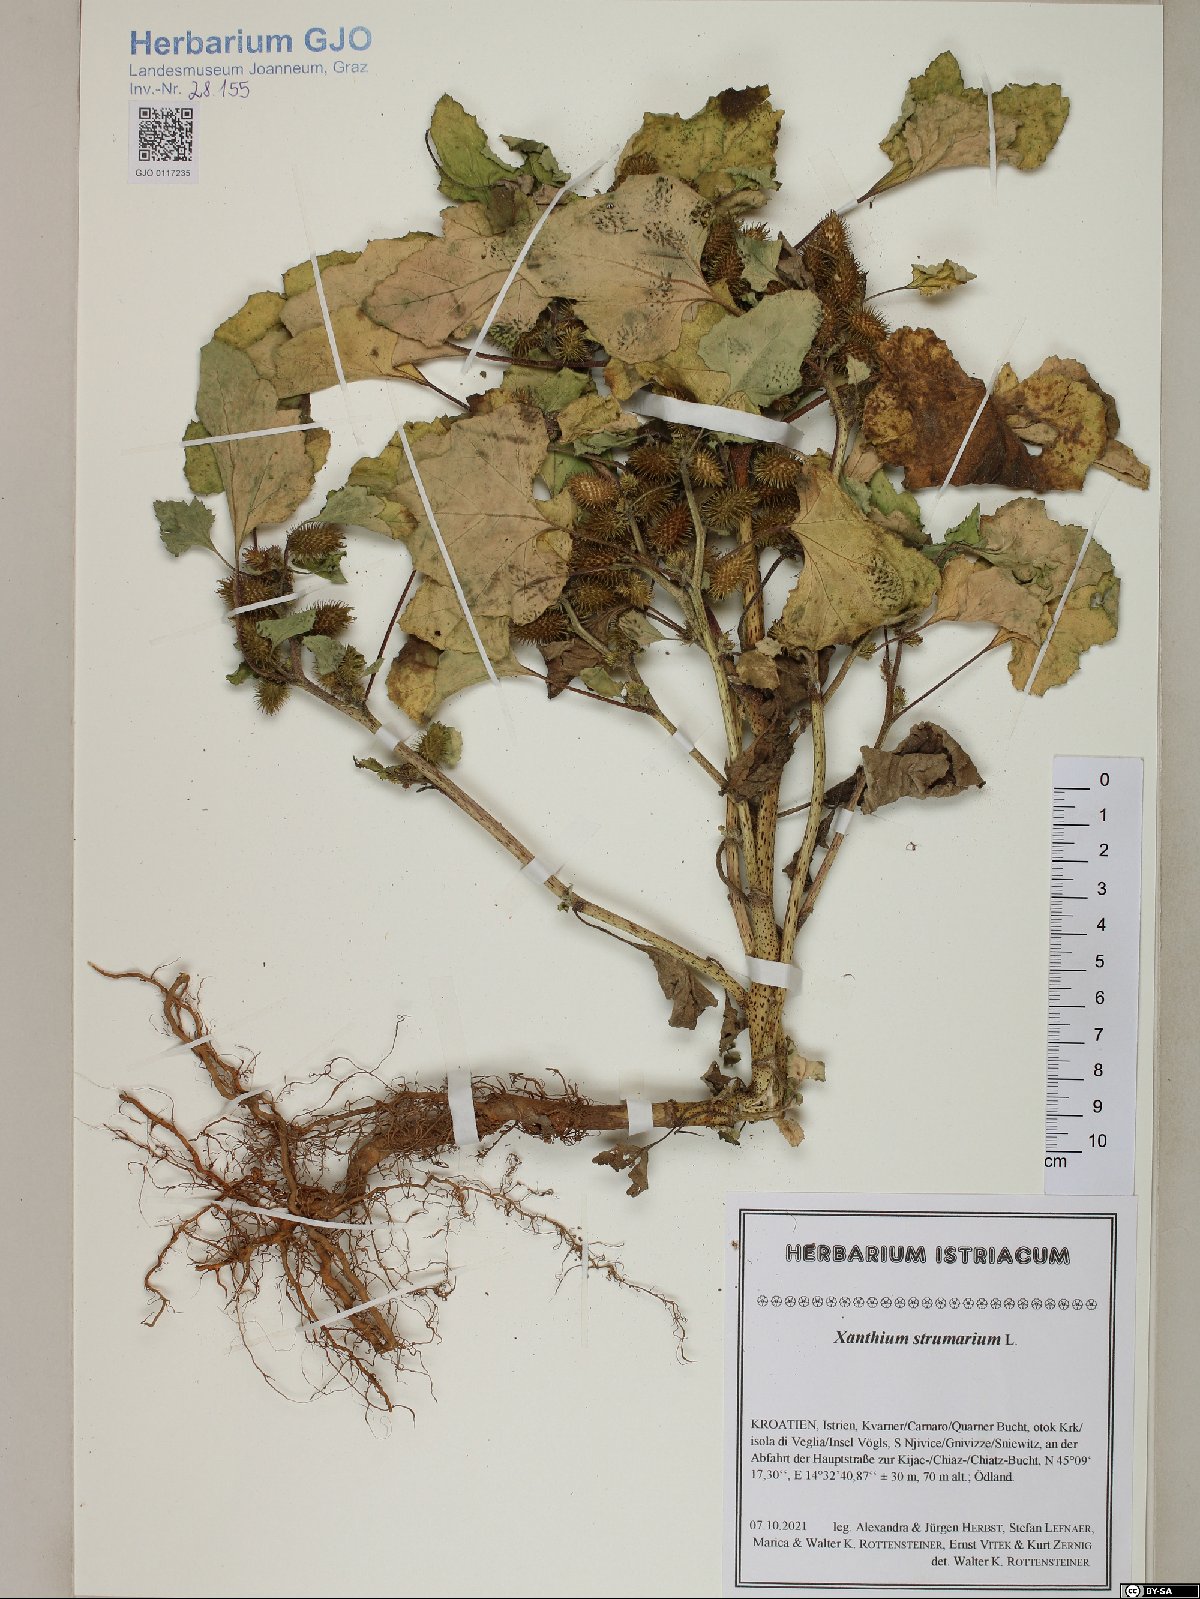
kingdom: Plantae
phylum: Tracheophyta
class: Magnoliopsida
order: Asterales
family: Asteraceae
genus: Xanthium
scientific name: Xanthium strumarium
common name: Rough cocklebur
